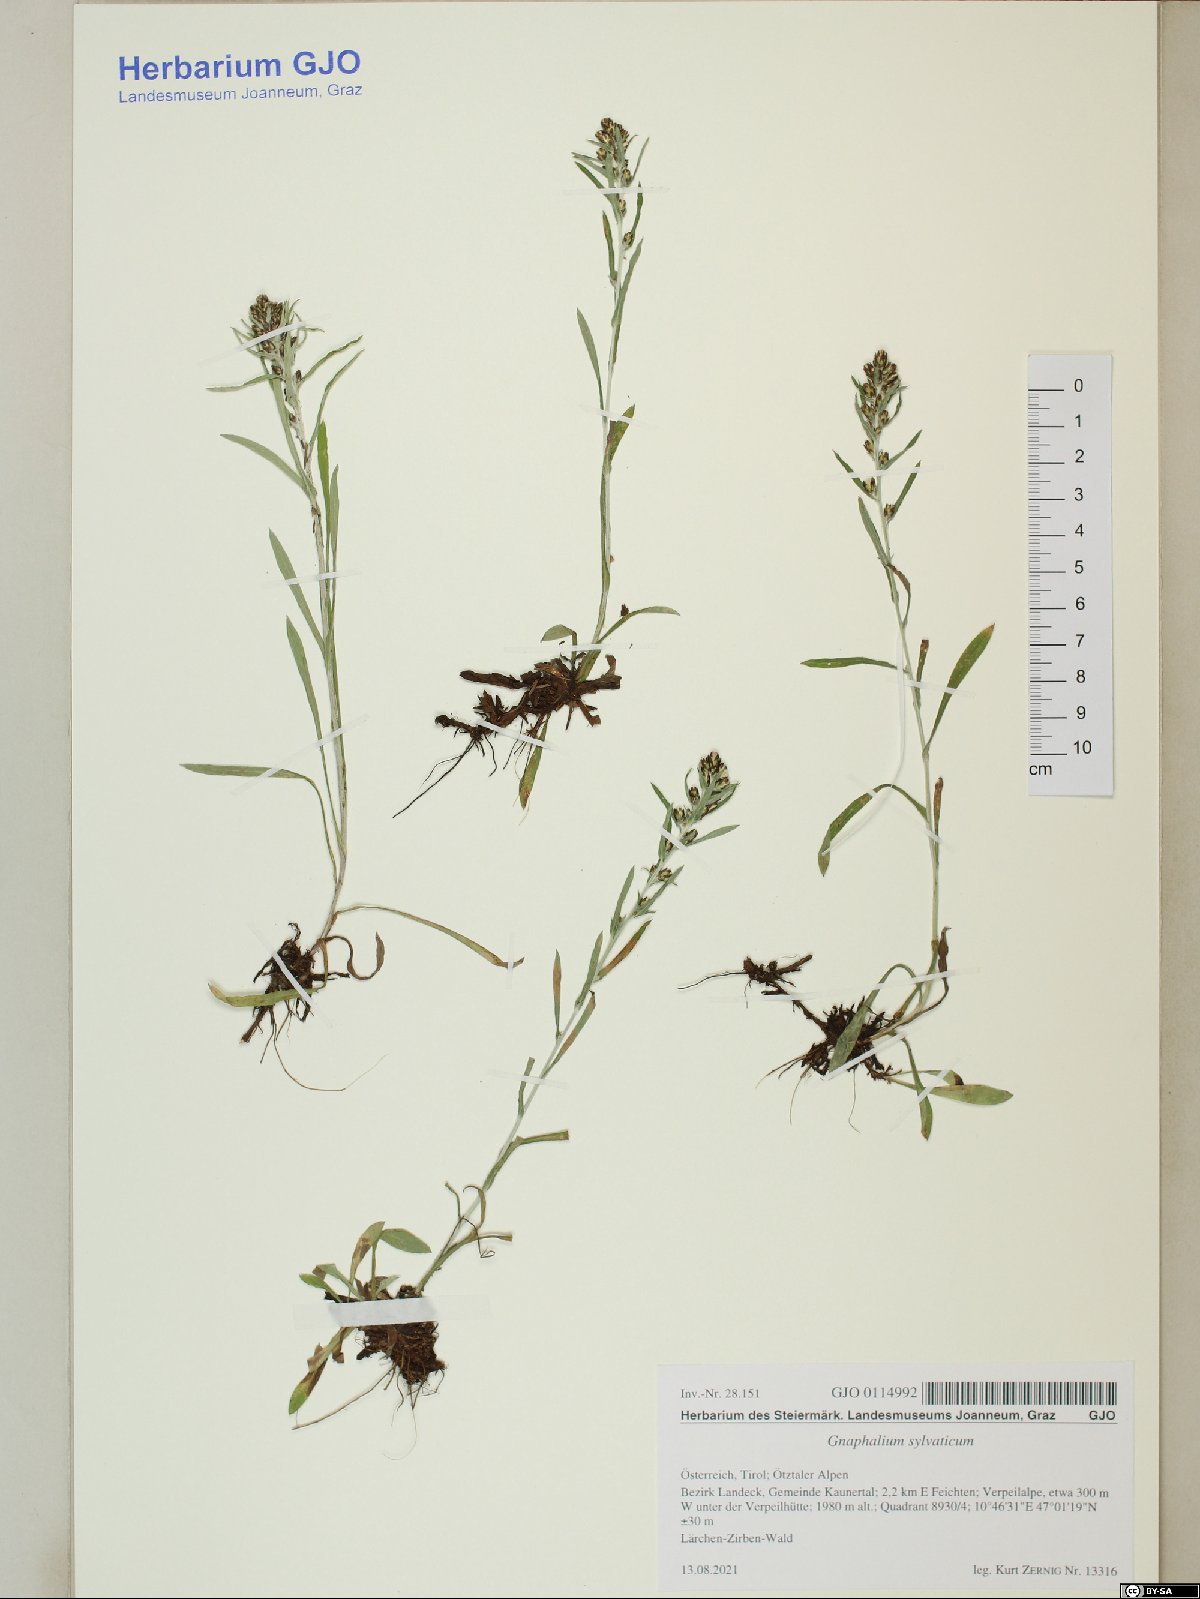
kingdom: Plantae
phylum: Tracheophyta
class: Magnoliopsida
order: Asterales
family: Asteraceae
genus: Omalotheca
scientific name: Omalotheca sylvatica
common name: Heath cudweed
